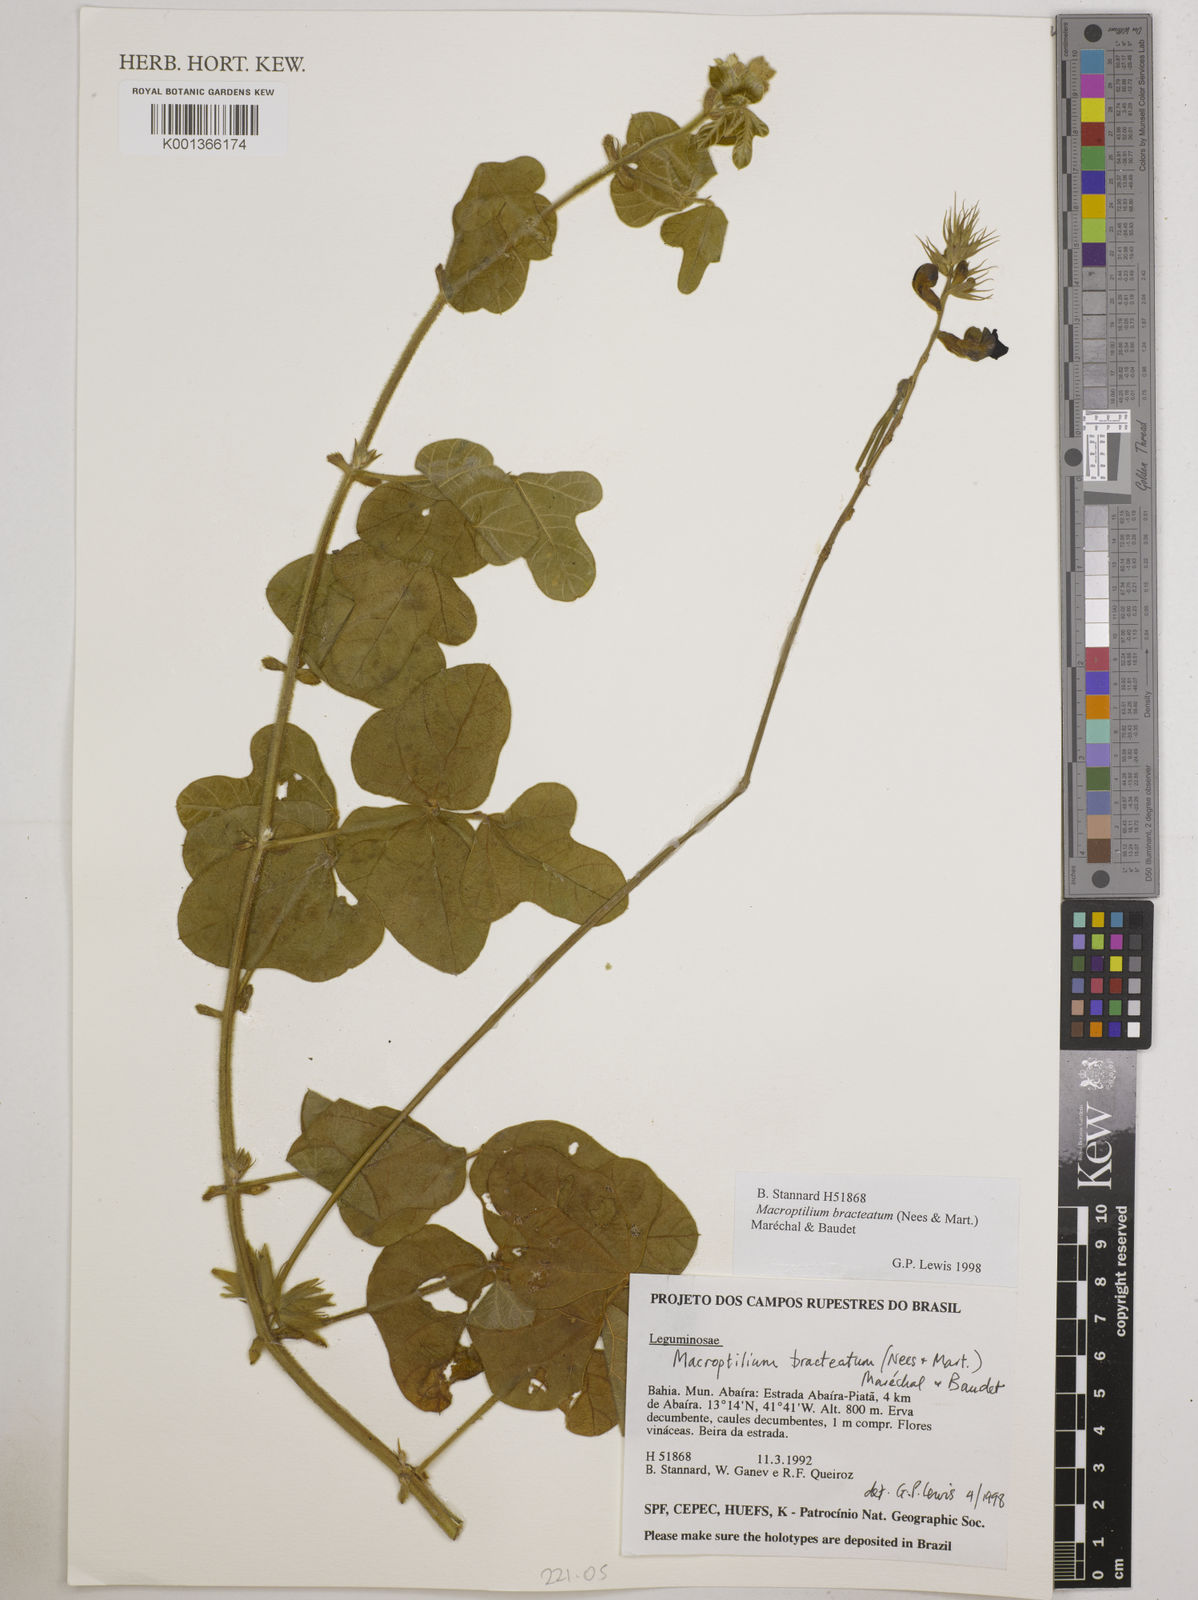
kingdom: Plantae
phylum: Tracheophyta
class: Magnoliopsida
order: Fabales
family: Fabaceae
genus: Macroptilium
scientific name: Macroptilium bracteatum
